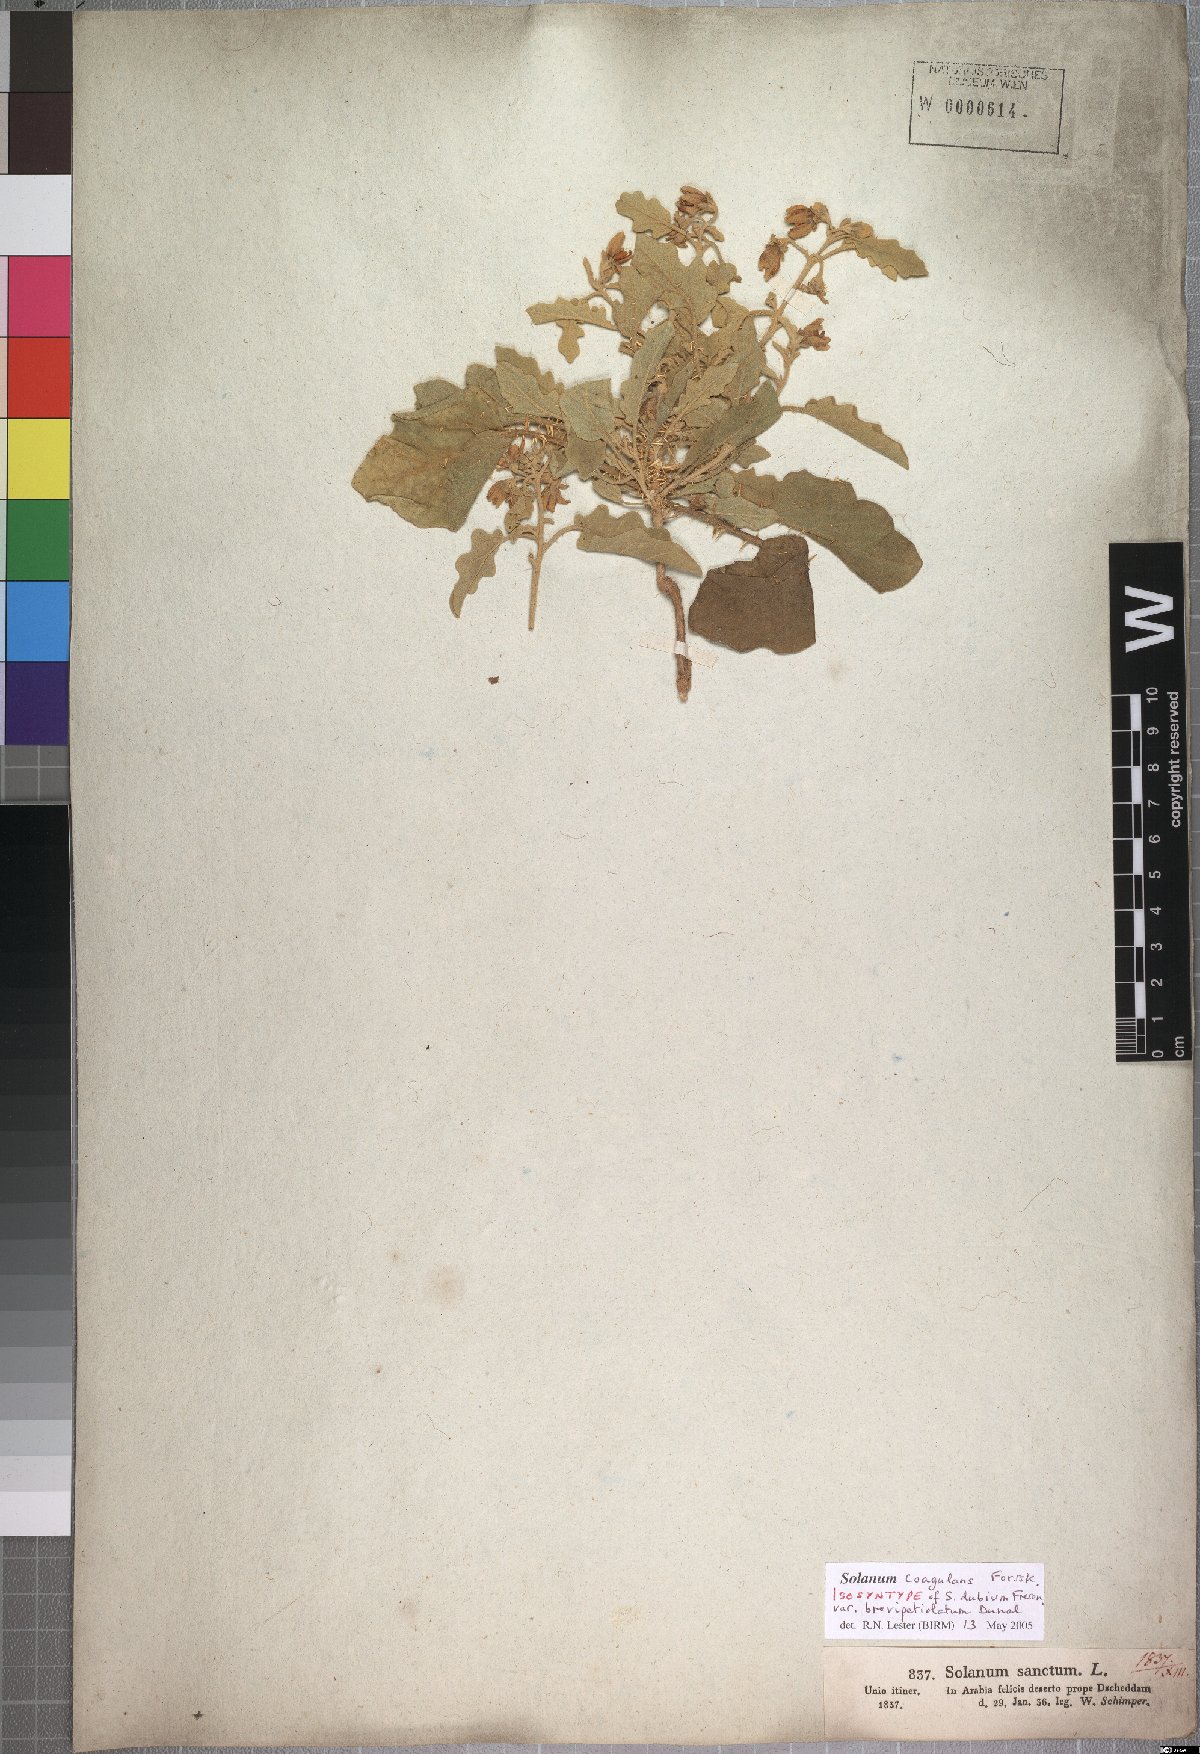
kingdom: Plantae
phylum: Tracheophyta
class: Magnoliopsida
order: Solanales
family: Solanaceae
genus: Solanum
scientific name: Solanum coagulans
